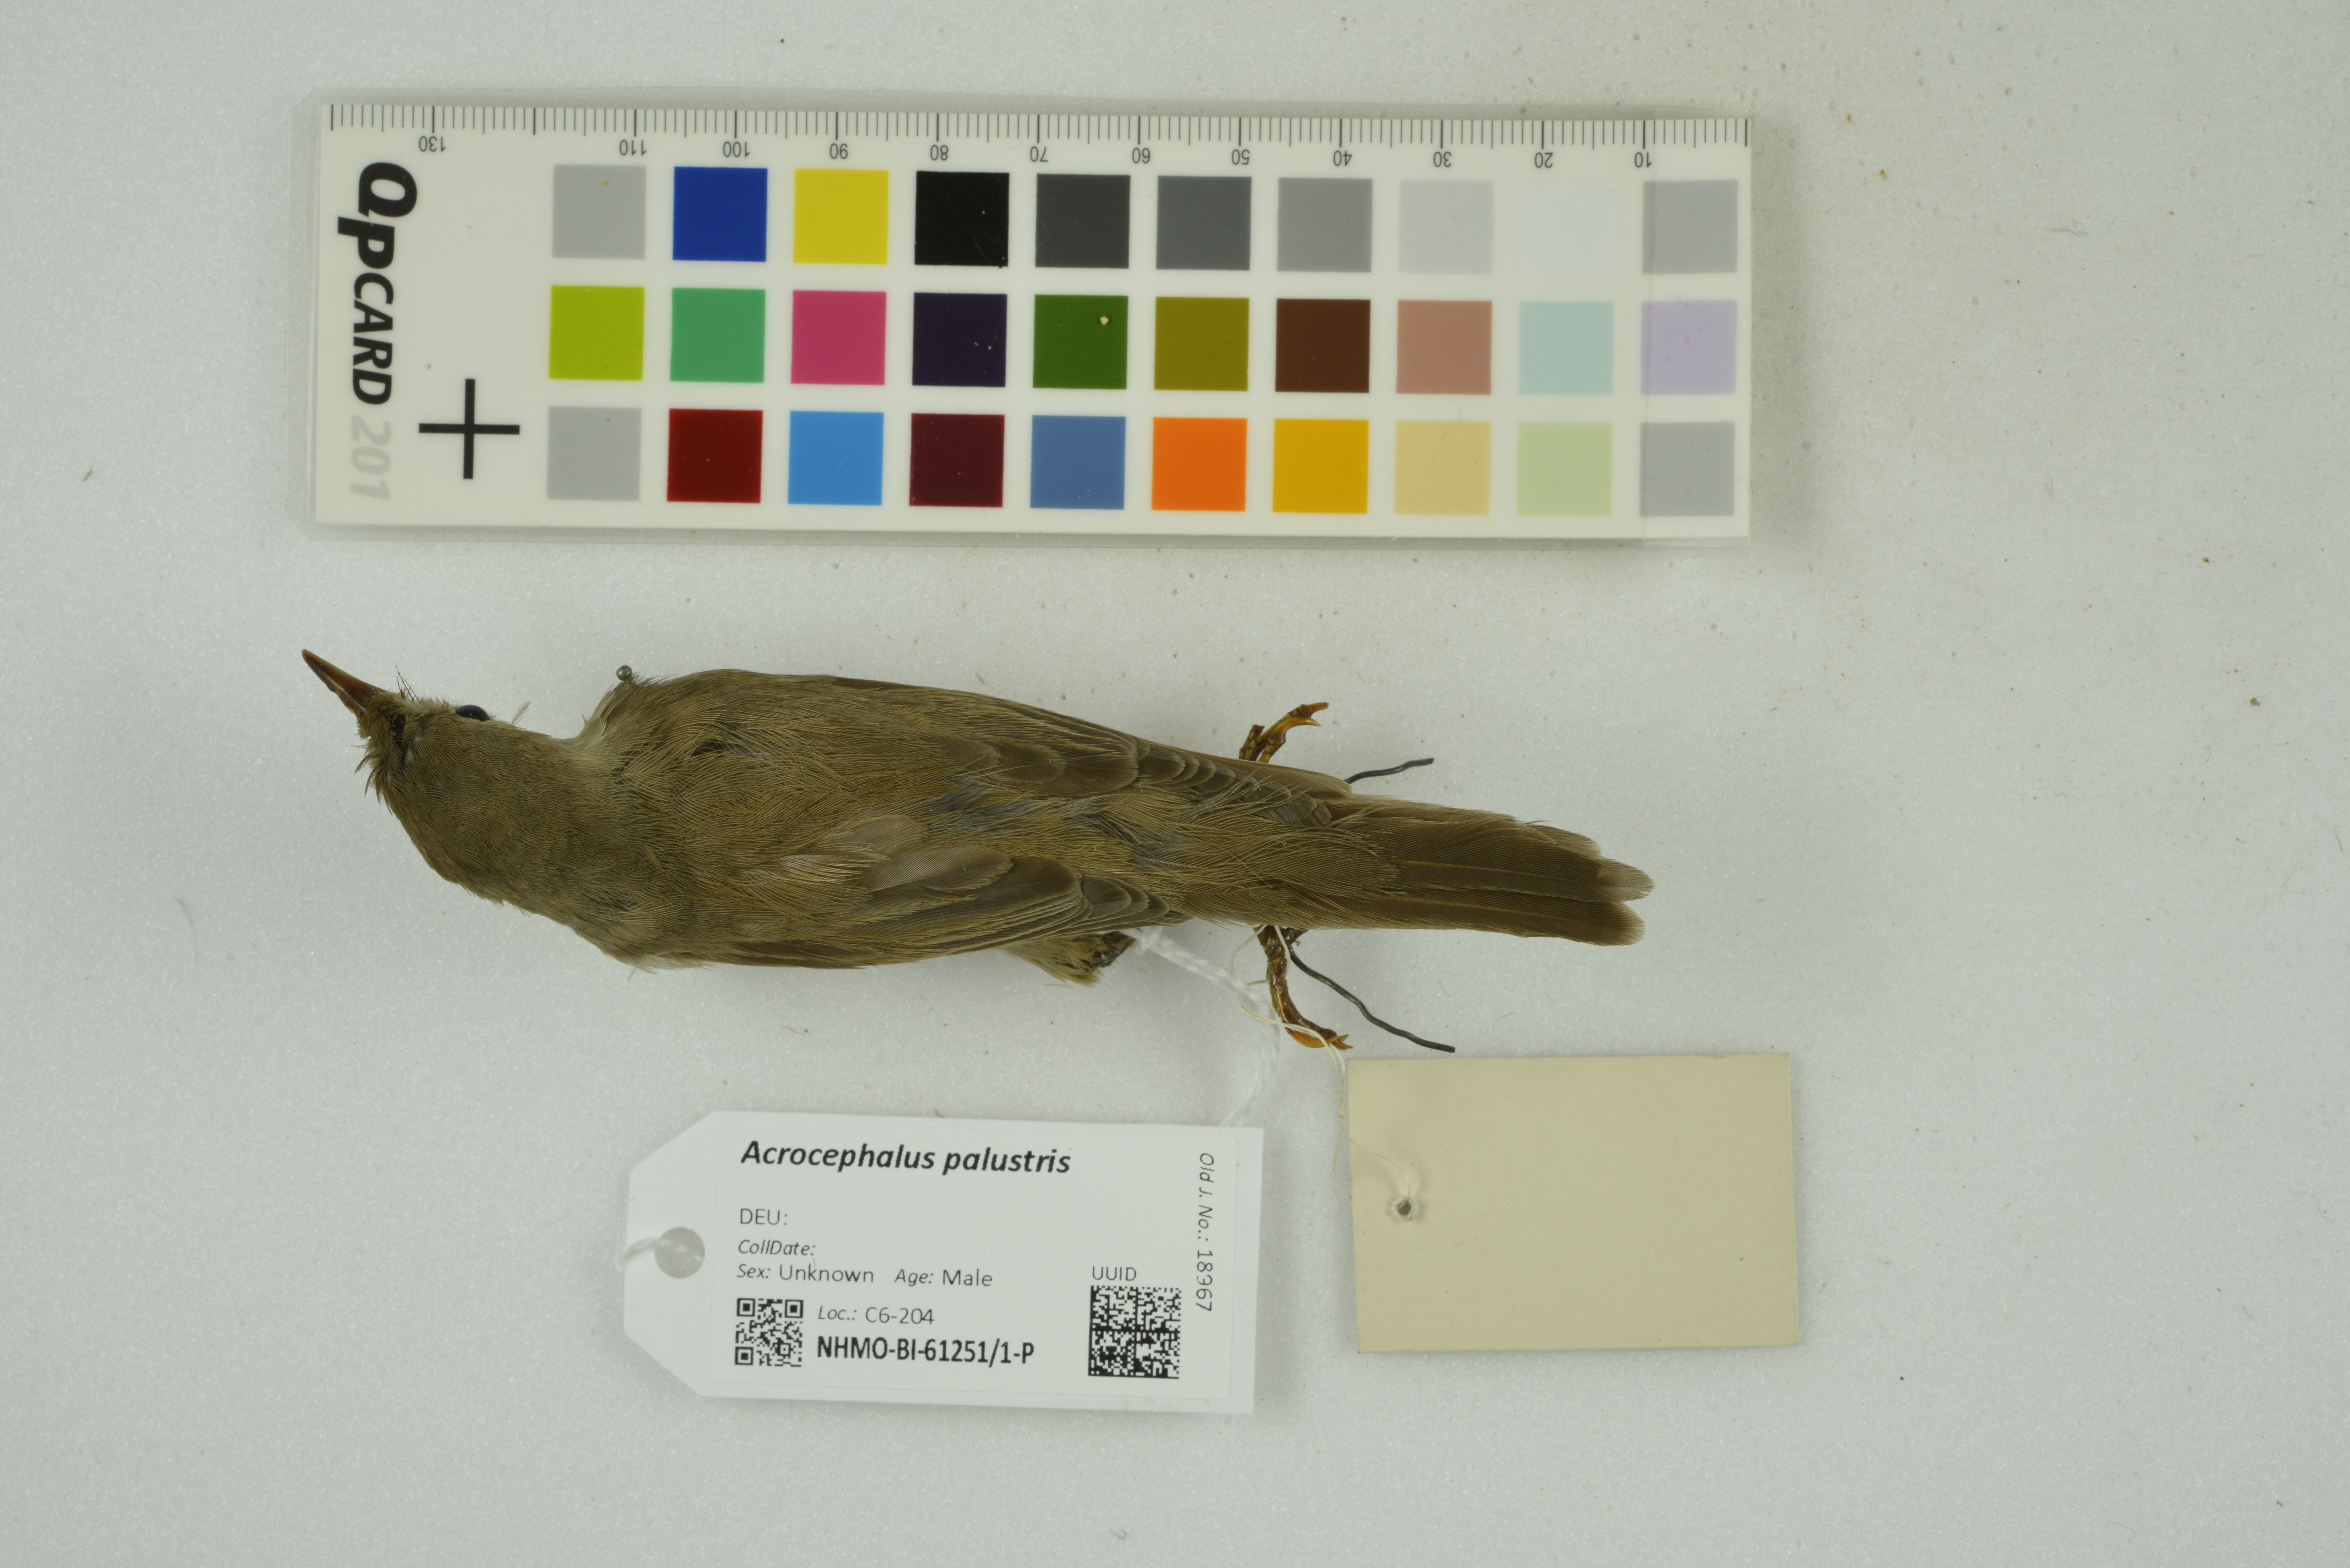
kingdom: Animalia
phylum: Chordata
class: Aves
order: Passeriformes
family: Acrocephalidae
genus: Acrocephalus
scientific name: Acrocephalus palustris
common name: Marsh warbler
